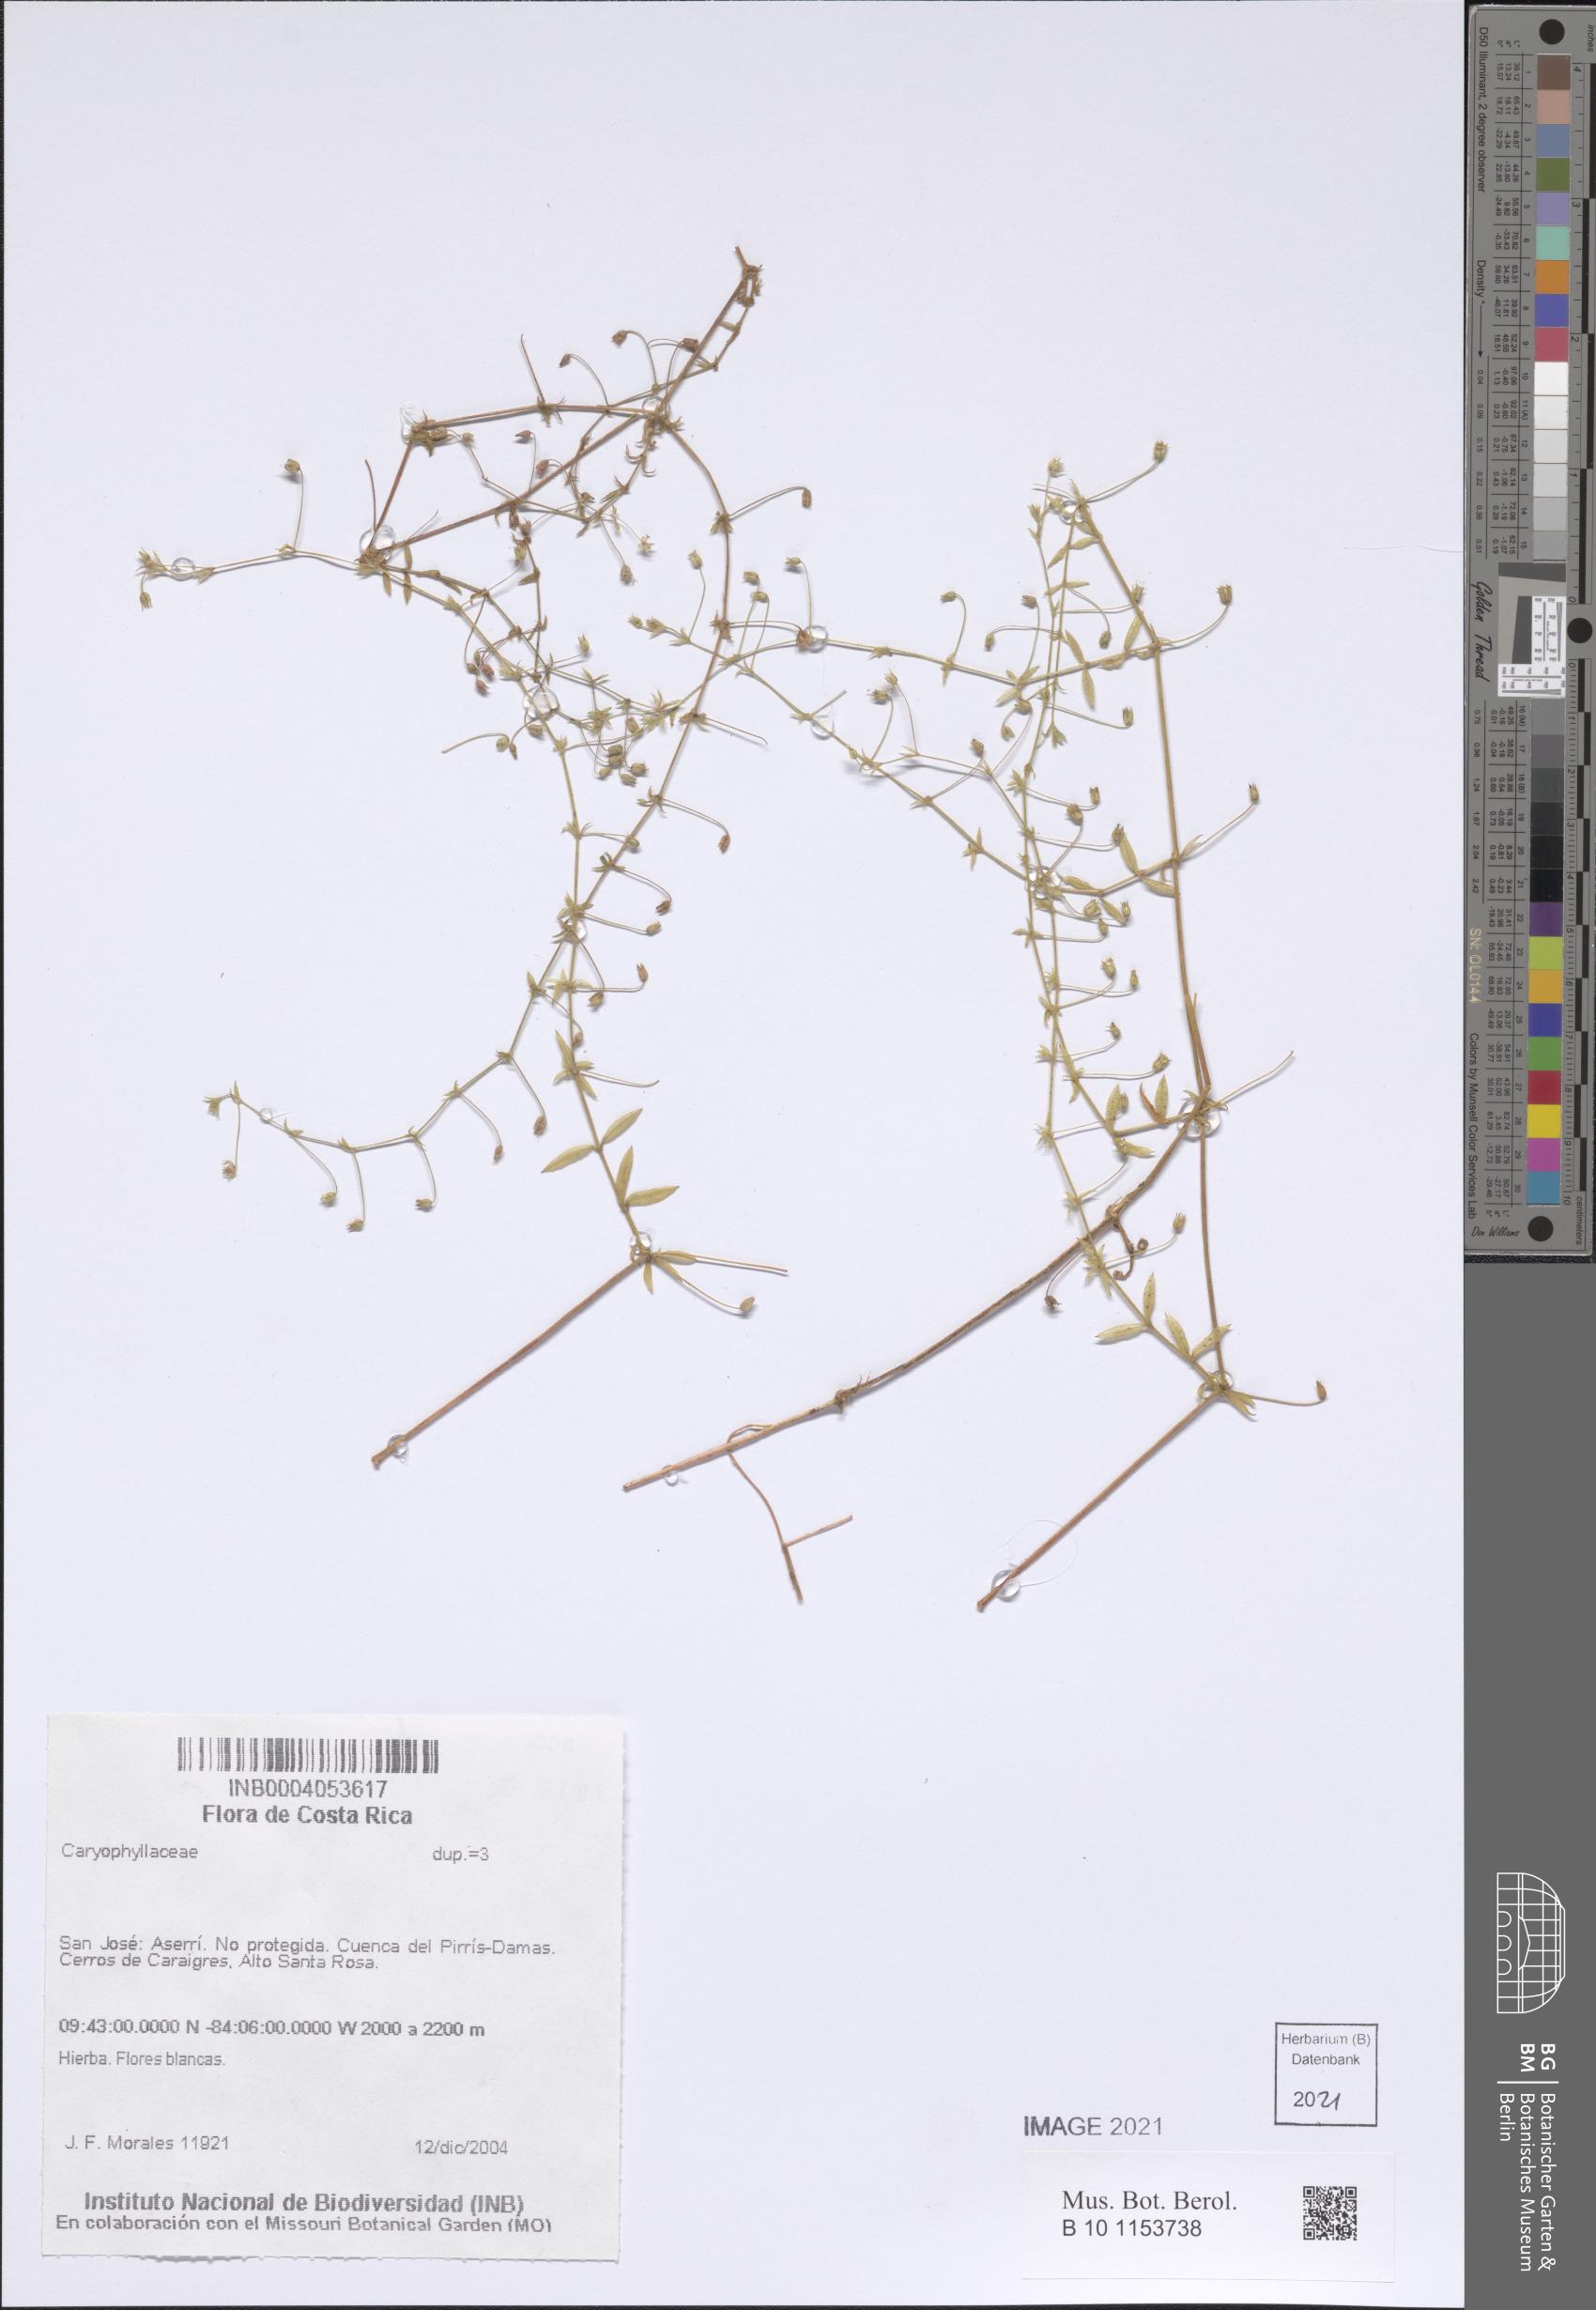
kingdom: Plantae
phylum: Tracheophyta
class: Magnoliopsida
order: Caryophyllales
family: Caryophyllaceae
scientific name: Caryophyllaceae
